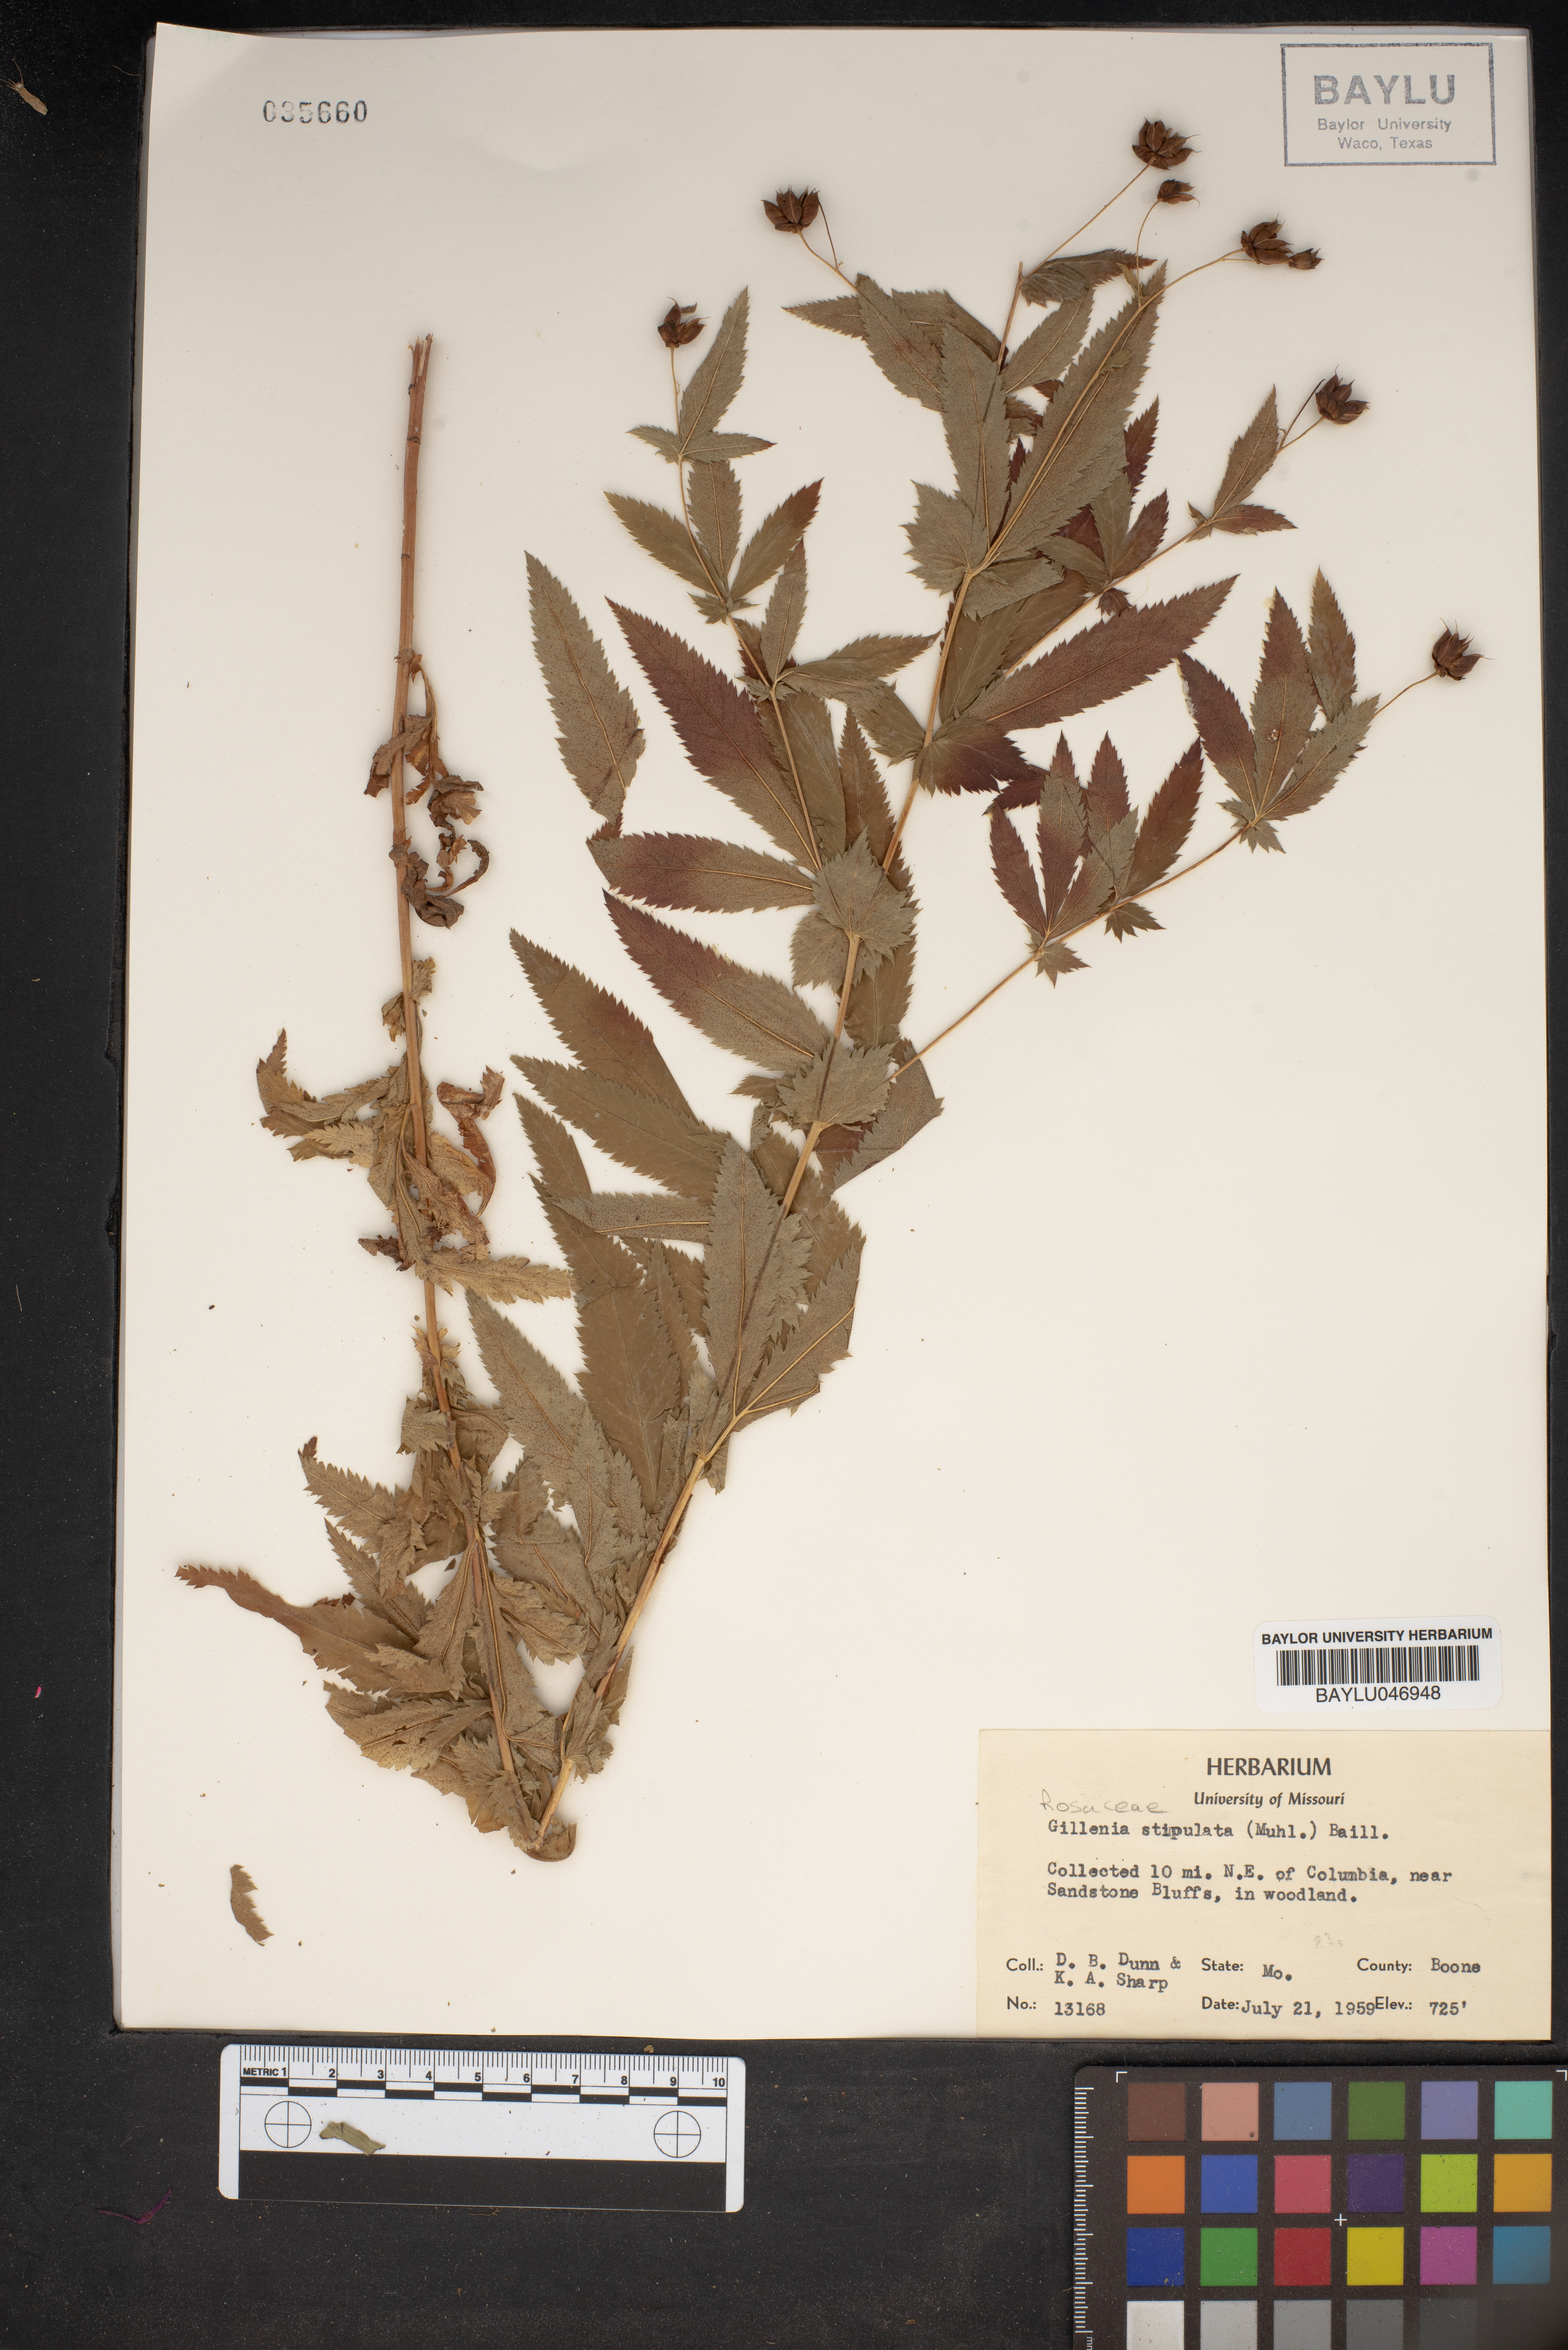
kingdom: Plantae
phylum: Tracheophyta
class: Magnoliopsida
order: Rosales
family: Rosaceae
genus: Gillenia
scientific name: Gillenia stipulata
